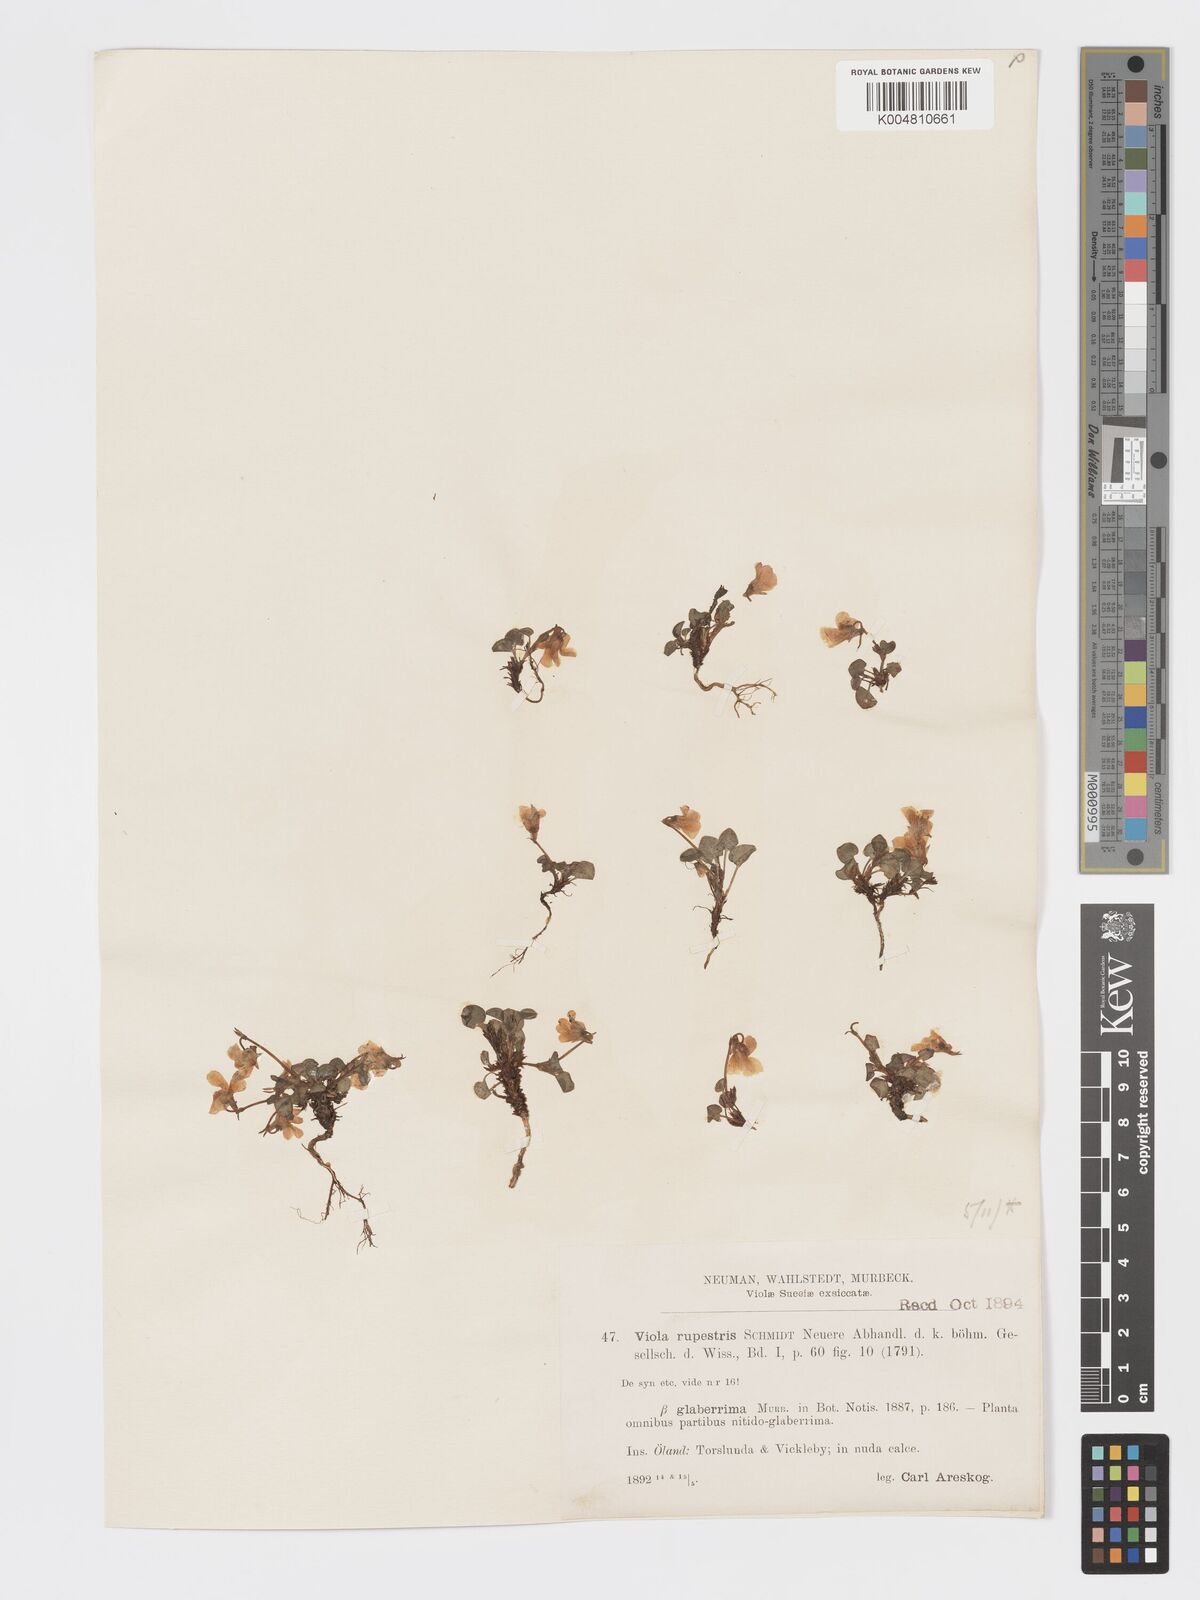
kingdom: Plantae
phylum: Tracheophyta
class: Magnoliopsida
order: Malpighiales
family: Violaceae
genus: Viola
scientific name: Viola rupestris
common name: Teesdale violet
